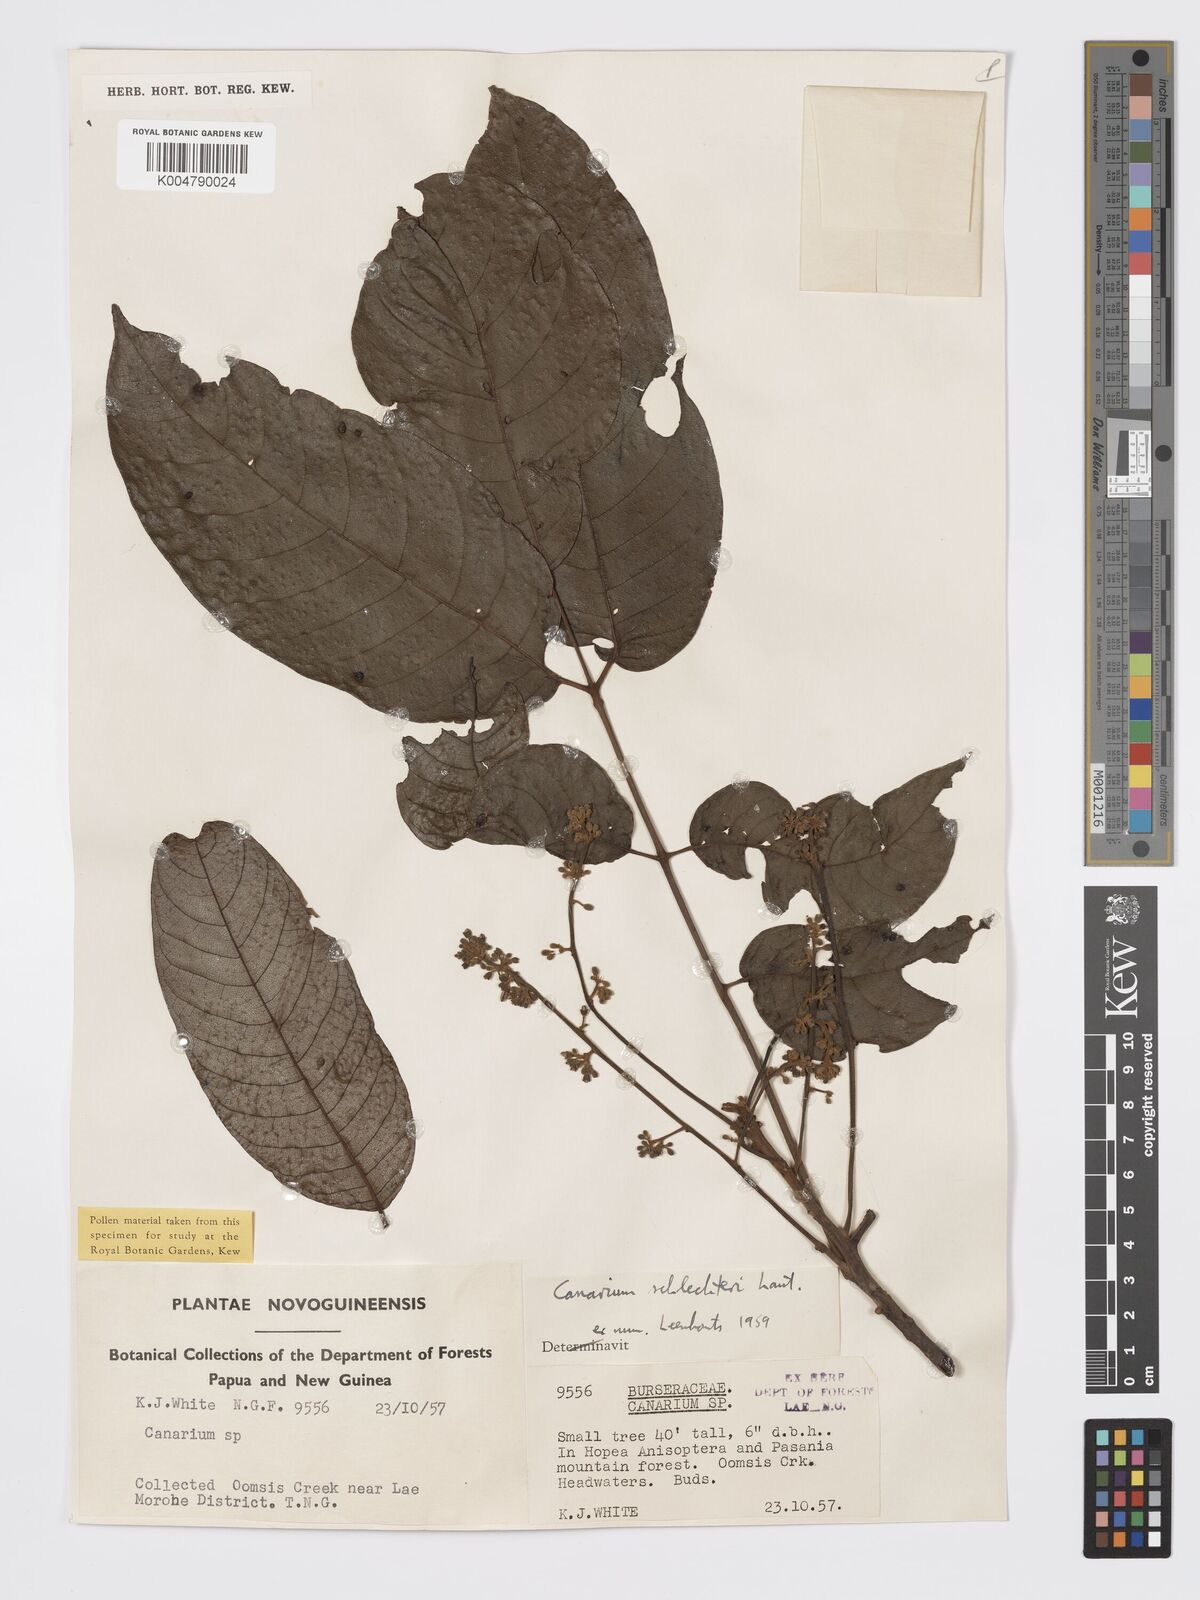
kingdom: Plantae
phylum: Tracheophyta
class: Magnoliopsida
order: Sapindales
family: Burseraceae
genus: Canarium
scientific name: Canarium schlechteri
